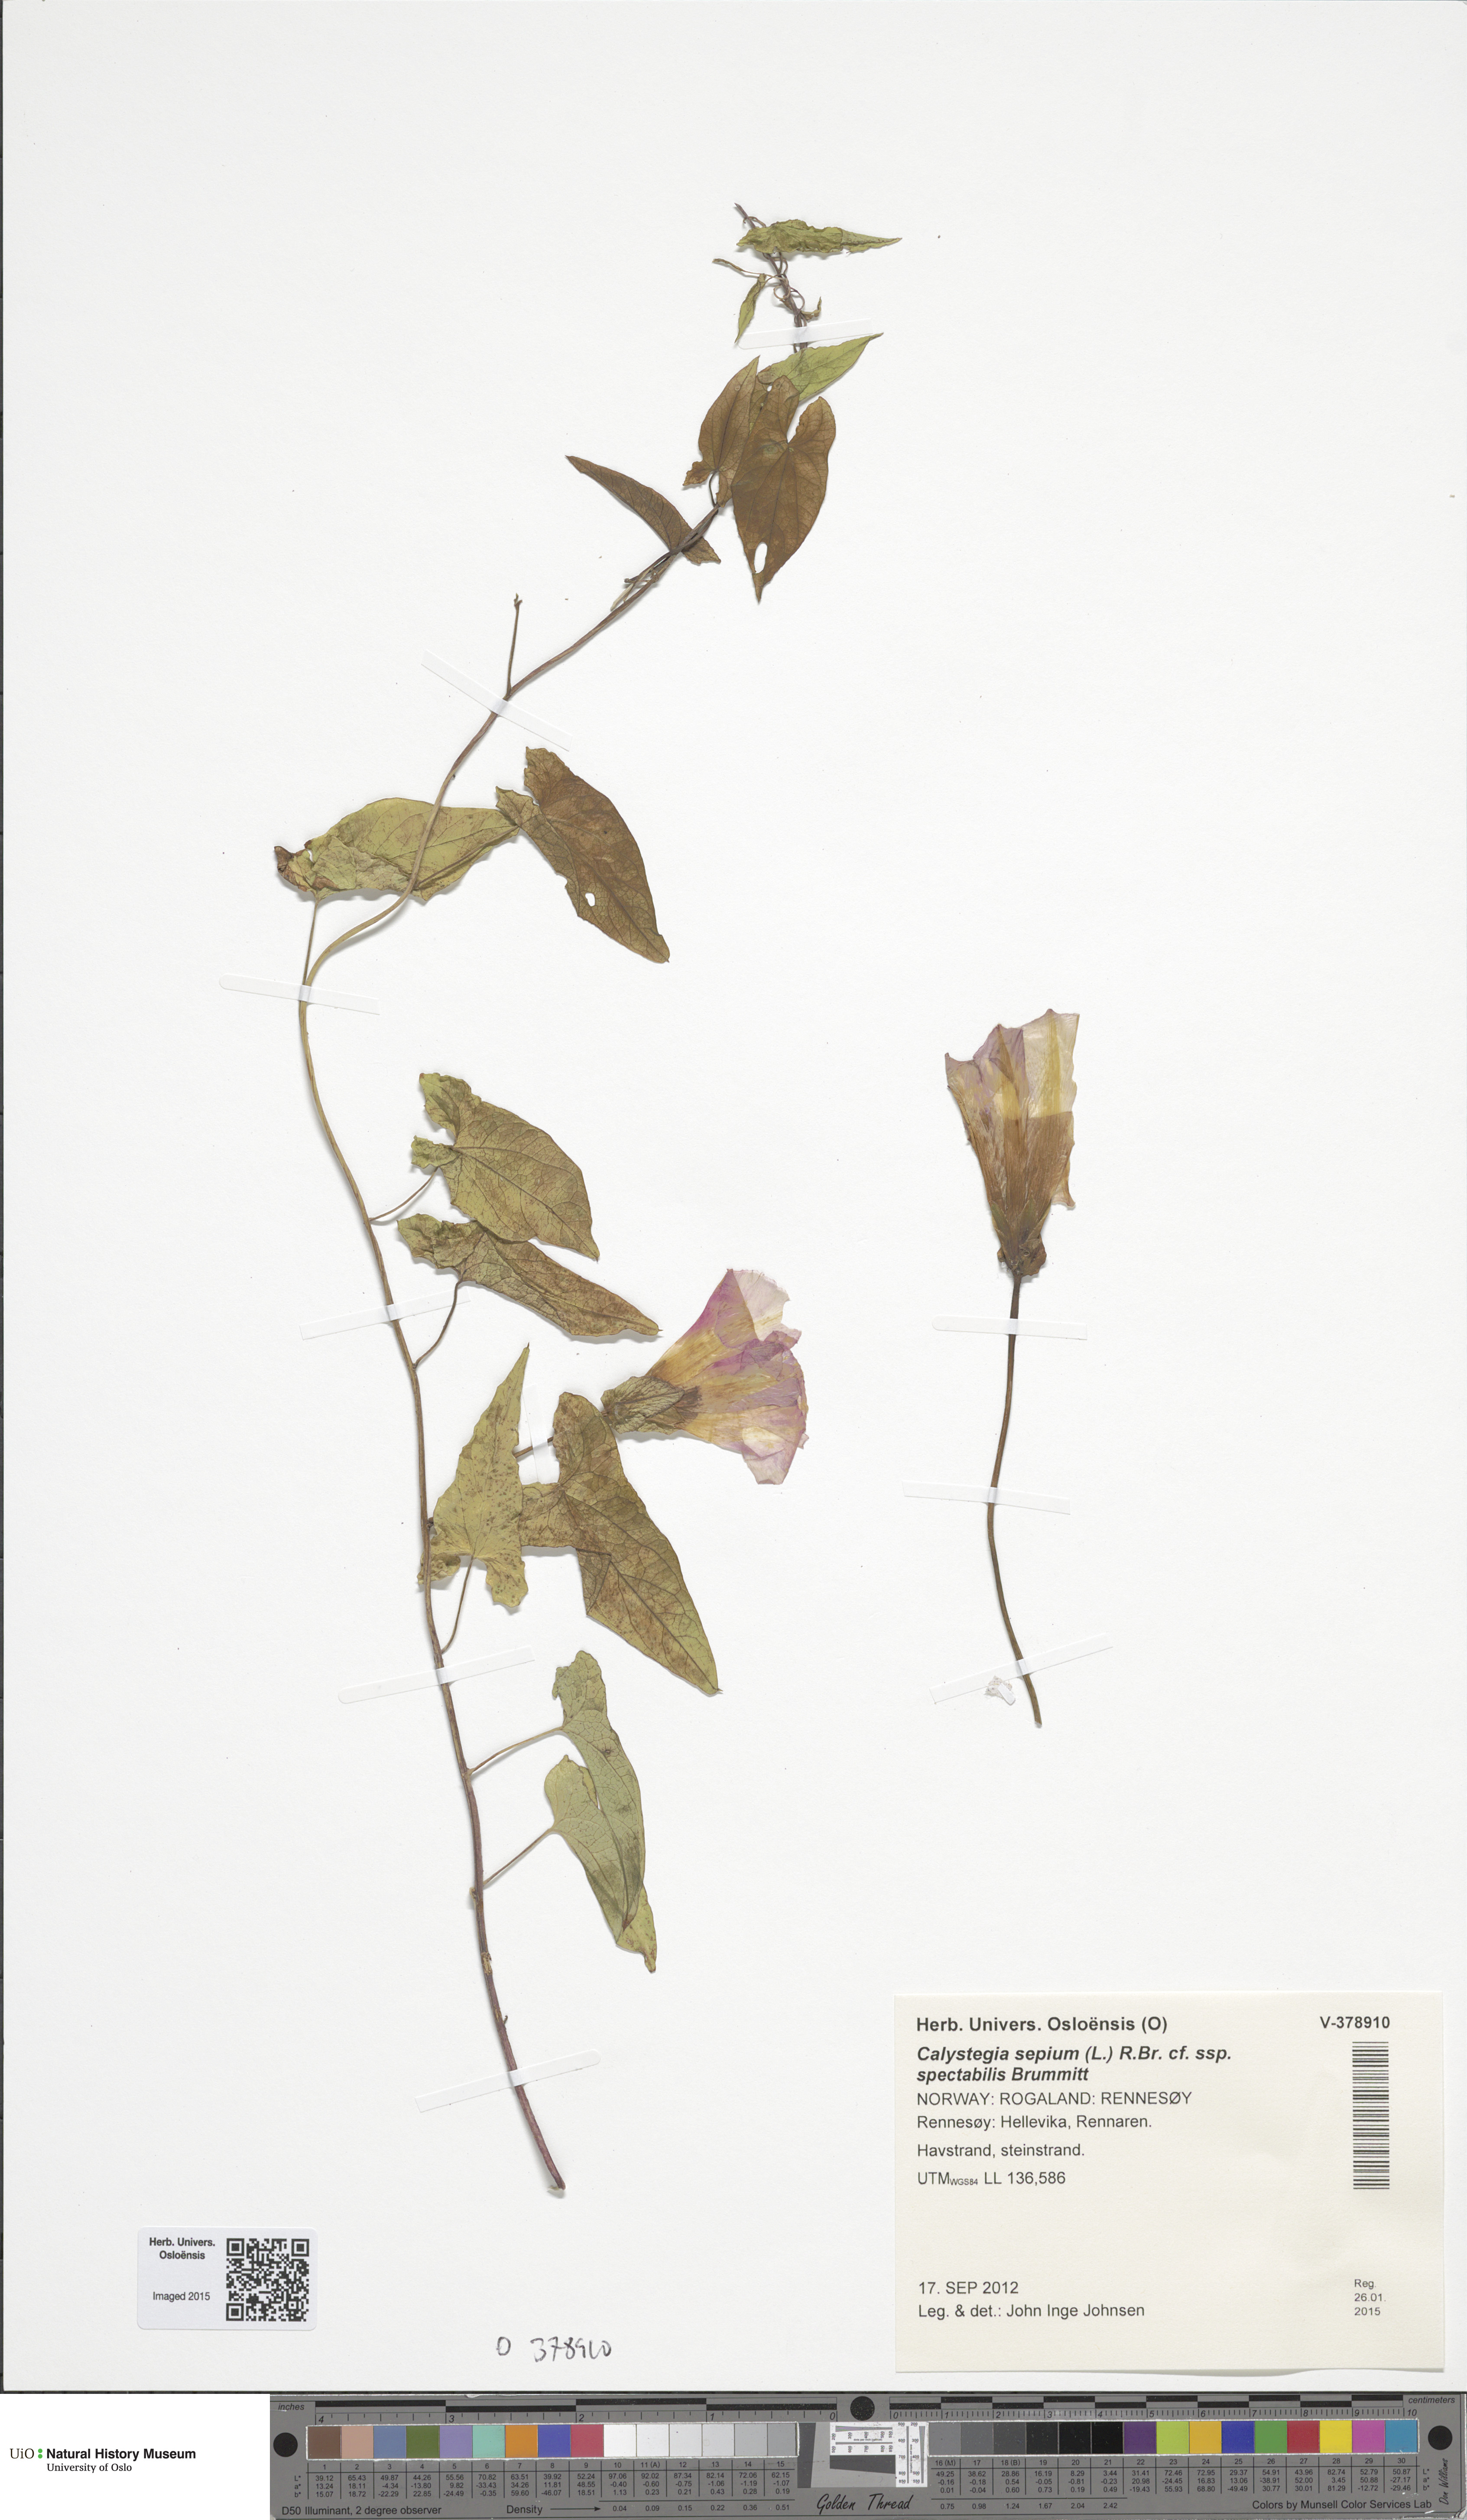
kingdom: Plantae
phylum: Tracheophyta
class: Magnoliopsida
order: Solanales
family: Convolvulaceae
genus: Calystegia
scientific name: Calystegia pulchra
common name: Hairy bindweed
